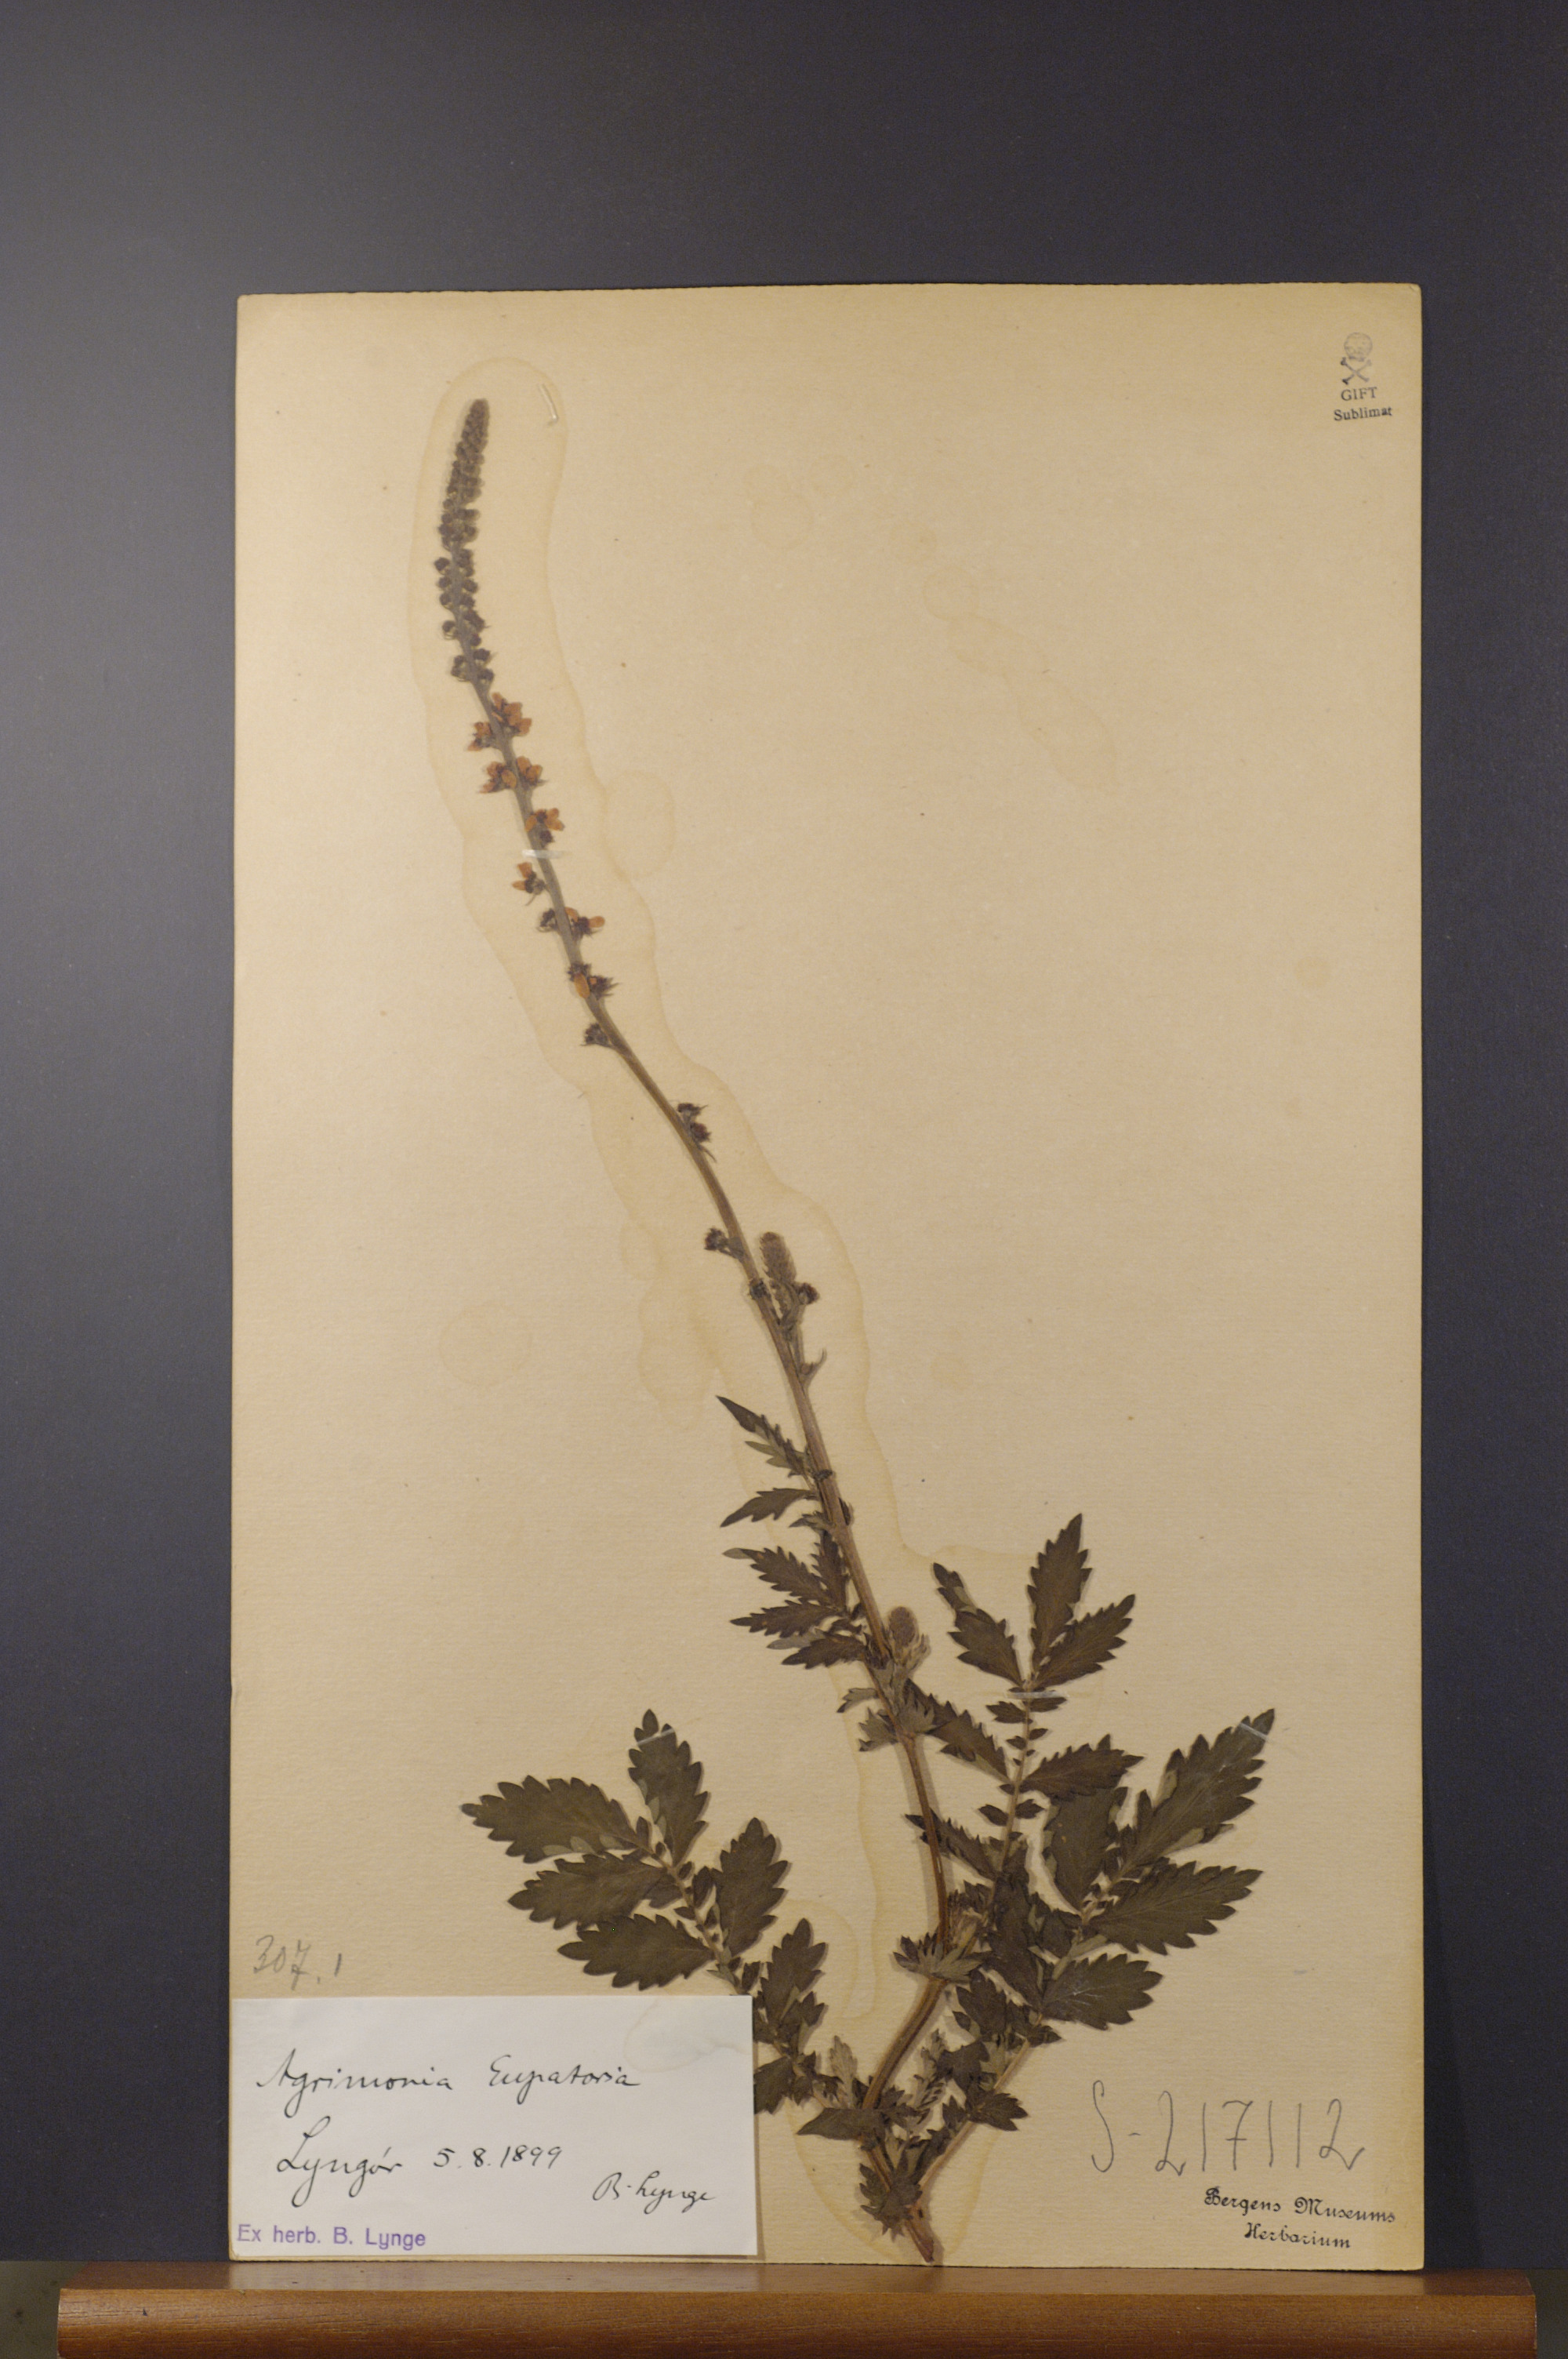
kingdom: Plantae
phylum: Tracheophyta
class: Magnoliopsida
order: Rosales
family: Rosaceae
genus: Agrimonia
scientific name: Agrimonia eupatoria
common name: Agrimony
